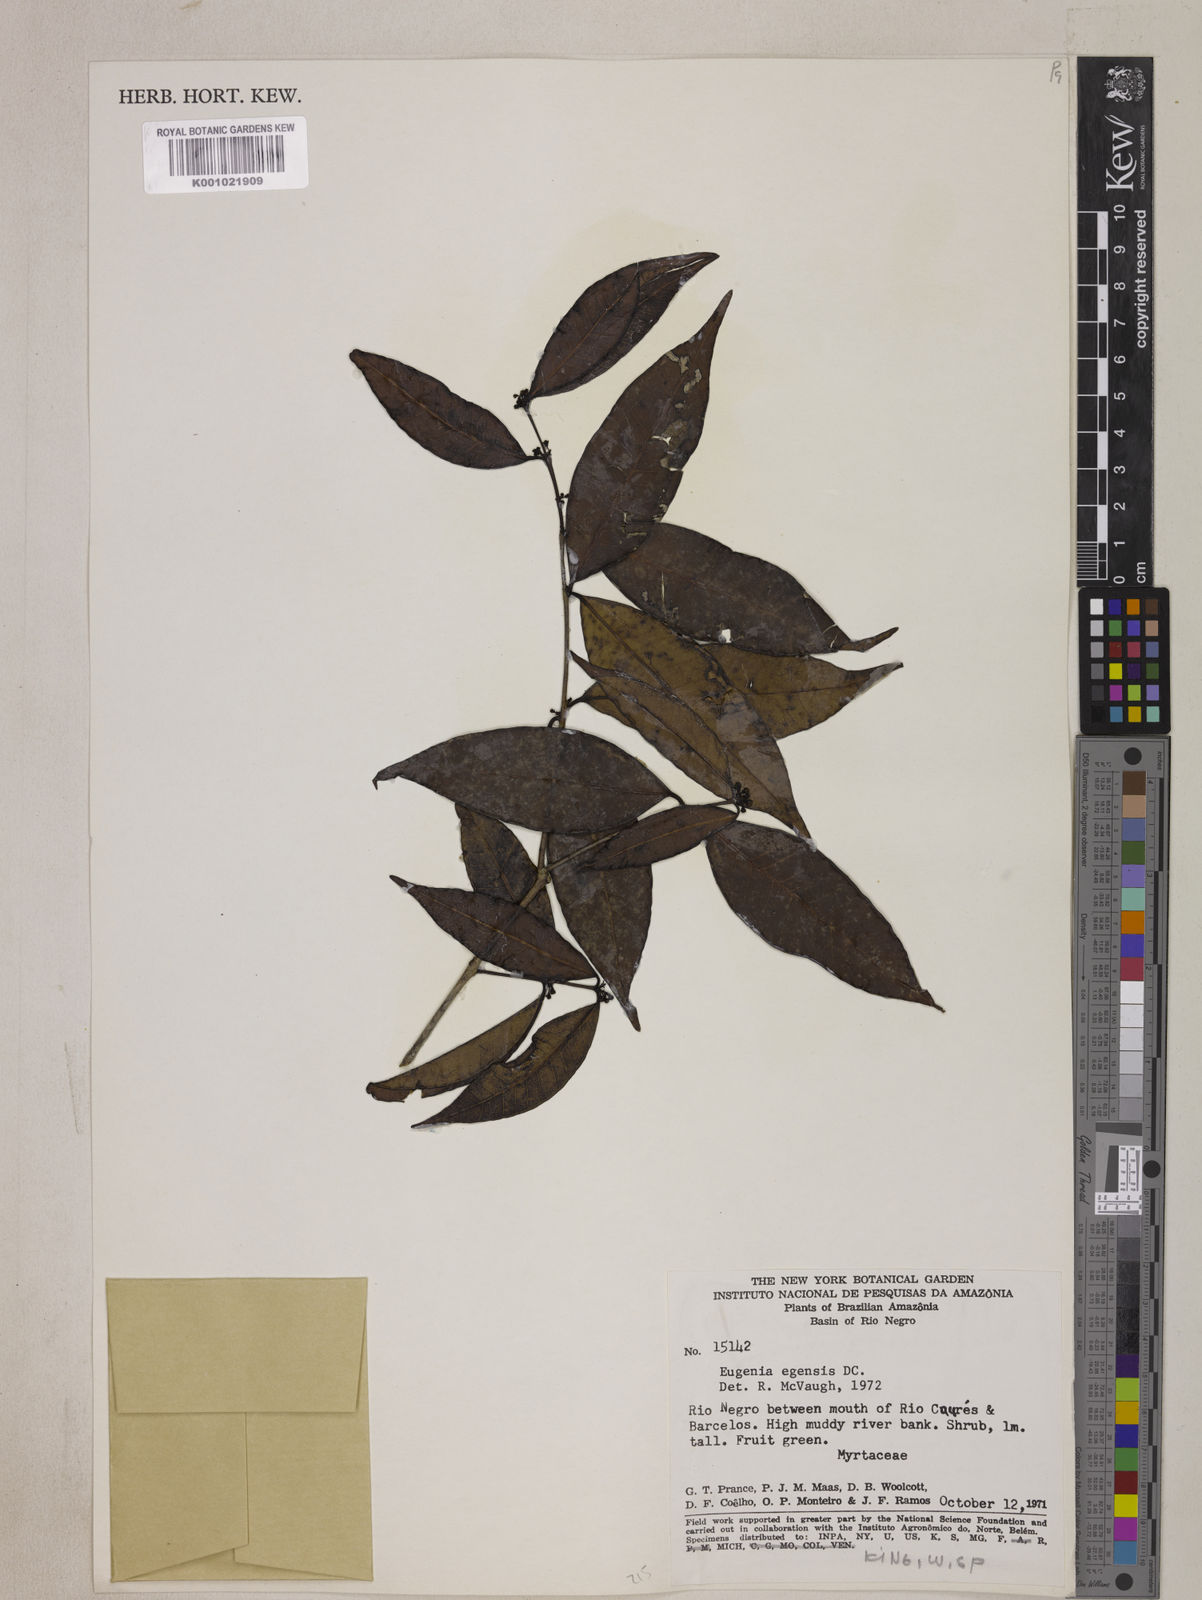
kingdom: Plantae
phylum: Tracheophyta
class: Magnoliopsida
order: Myrtales
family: Myrtaceae
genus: Eugenia
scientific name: Eugenia egensis
